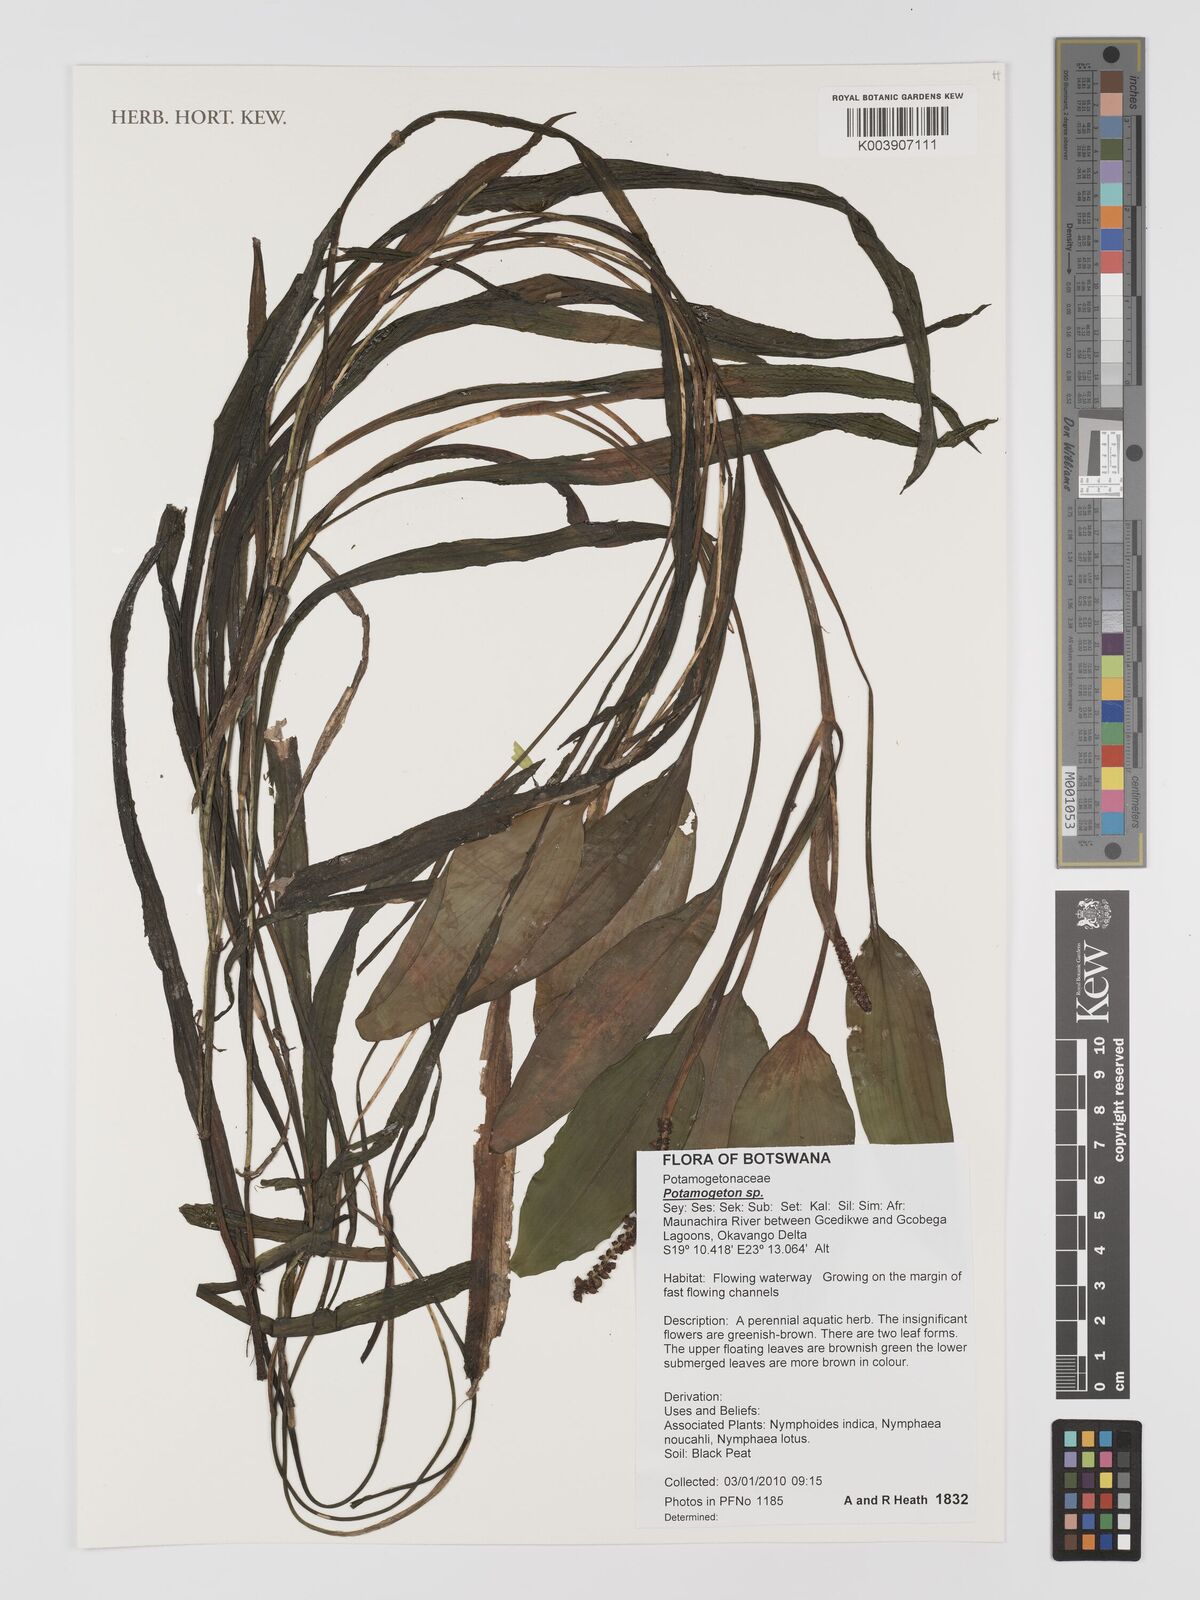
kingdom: Plantae
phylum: Tracheophyta
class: Liliopsida
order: Alismatales
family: Potamogetonaceae
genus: Potamogeton
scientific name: Potamogeton
